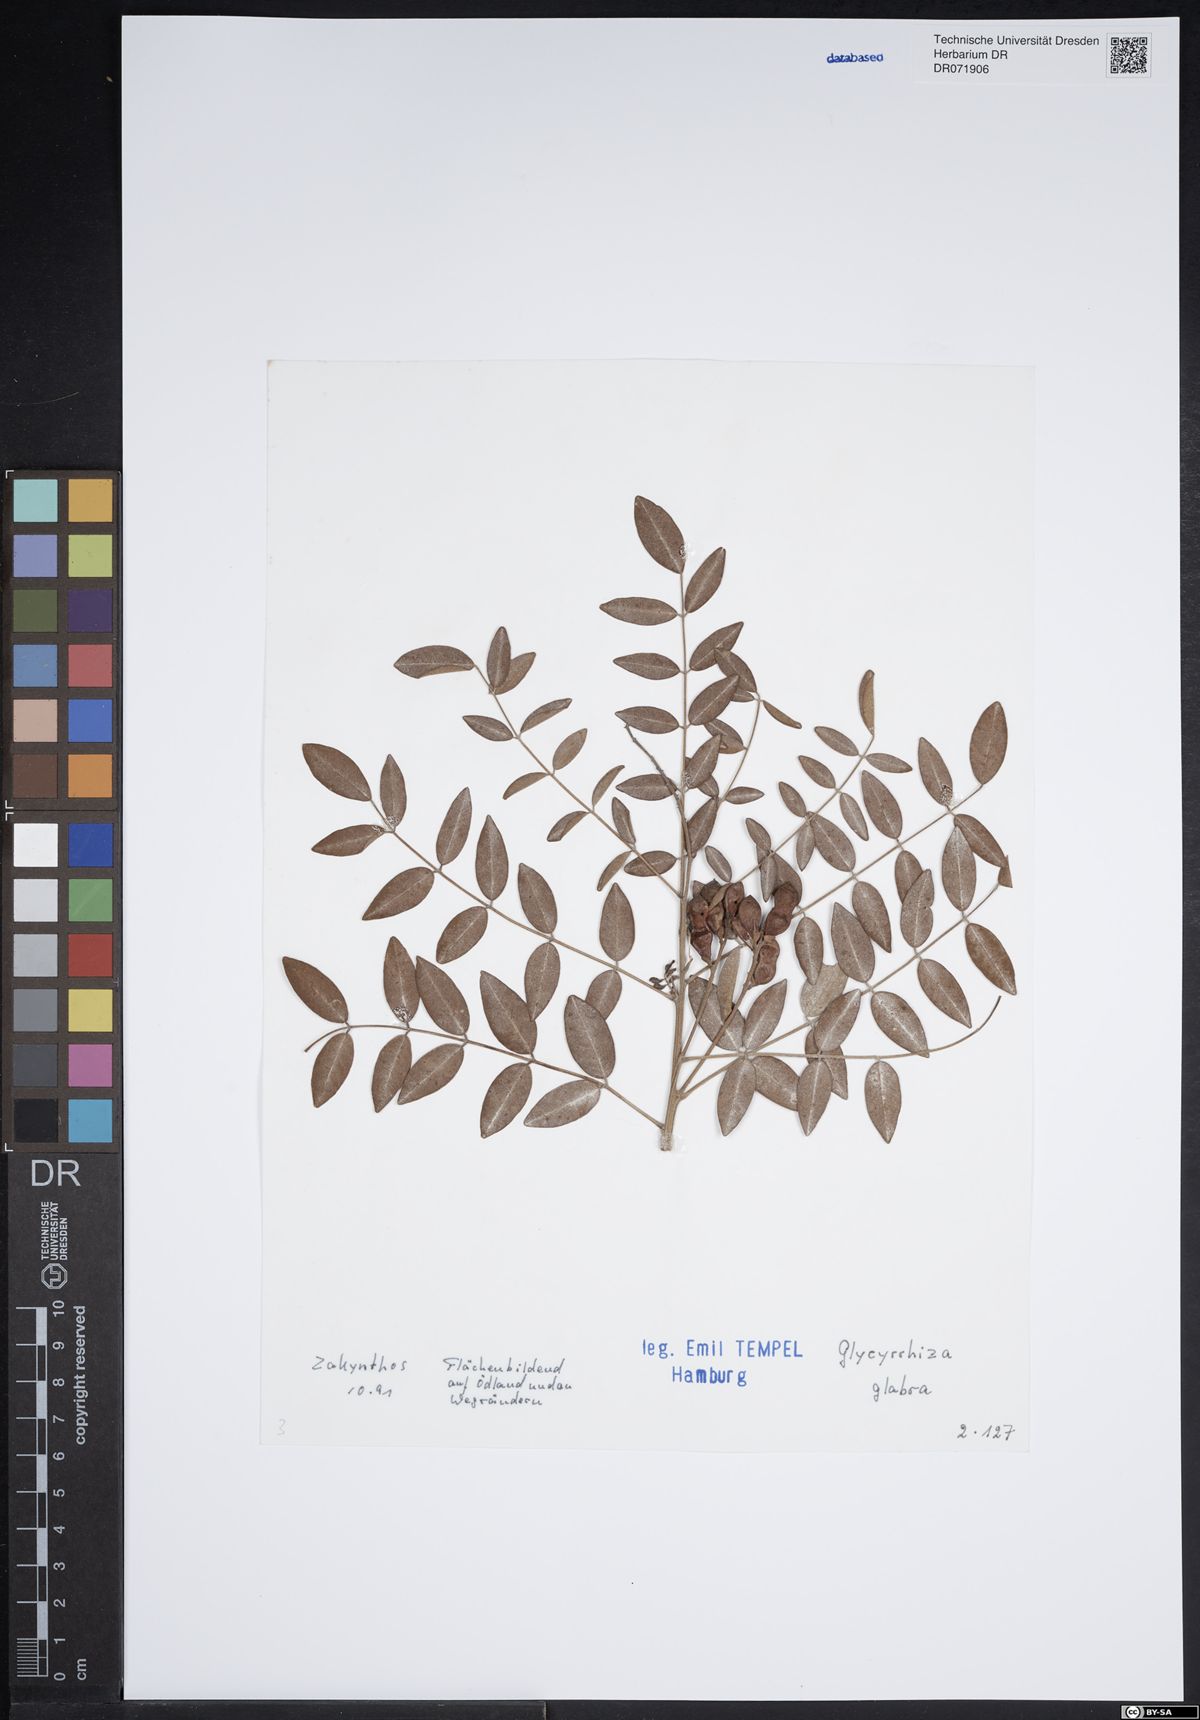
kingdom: Plantae
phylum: Tracheophyta
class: Magnoliopsida
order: Fabales
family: Fabaceae
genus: Glycyrrhiza
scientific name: Glycyrrhiza glabra
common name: Liquorice
